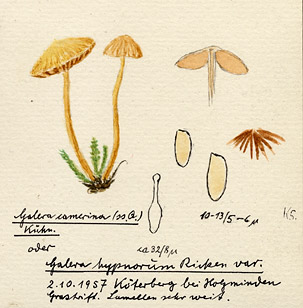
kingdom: Fungi
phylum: Basidiomycota
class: Agaricomycetes
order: Agaricales
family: Hymenogastraceae
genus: Galerina
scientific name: Galerina hypnorum
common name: Moss bell
